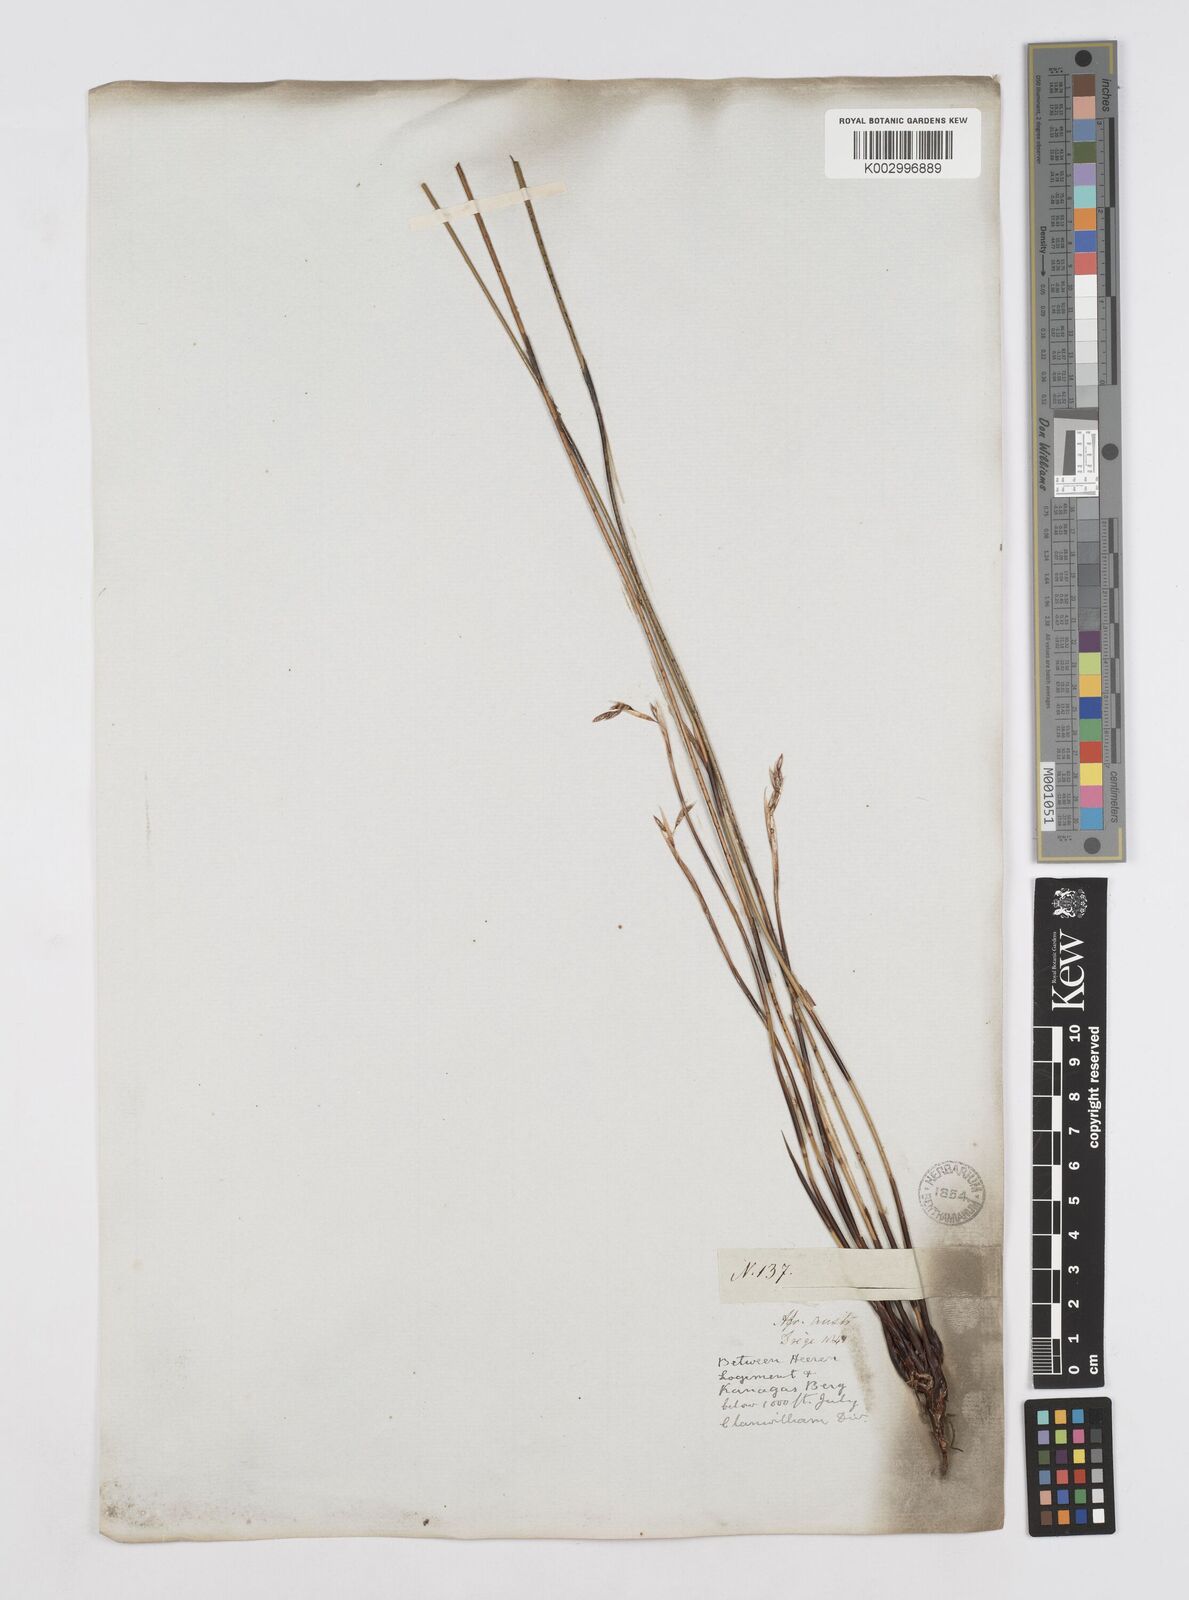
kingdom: Plantae
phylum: Tracheophyta
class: Liliopsida
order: Poales
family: Restionaceae
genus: Thamnochortus
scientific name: Thamnochortus lucens
